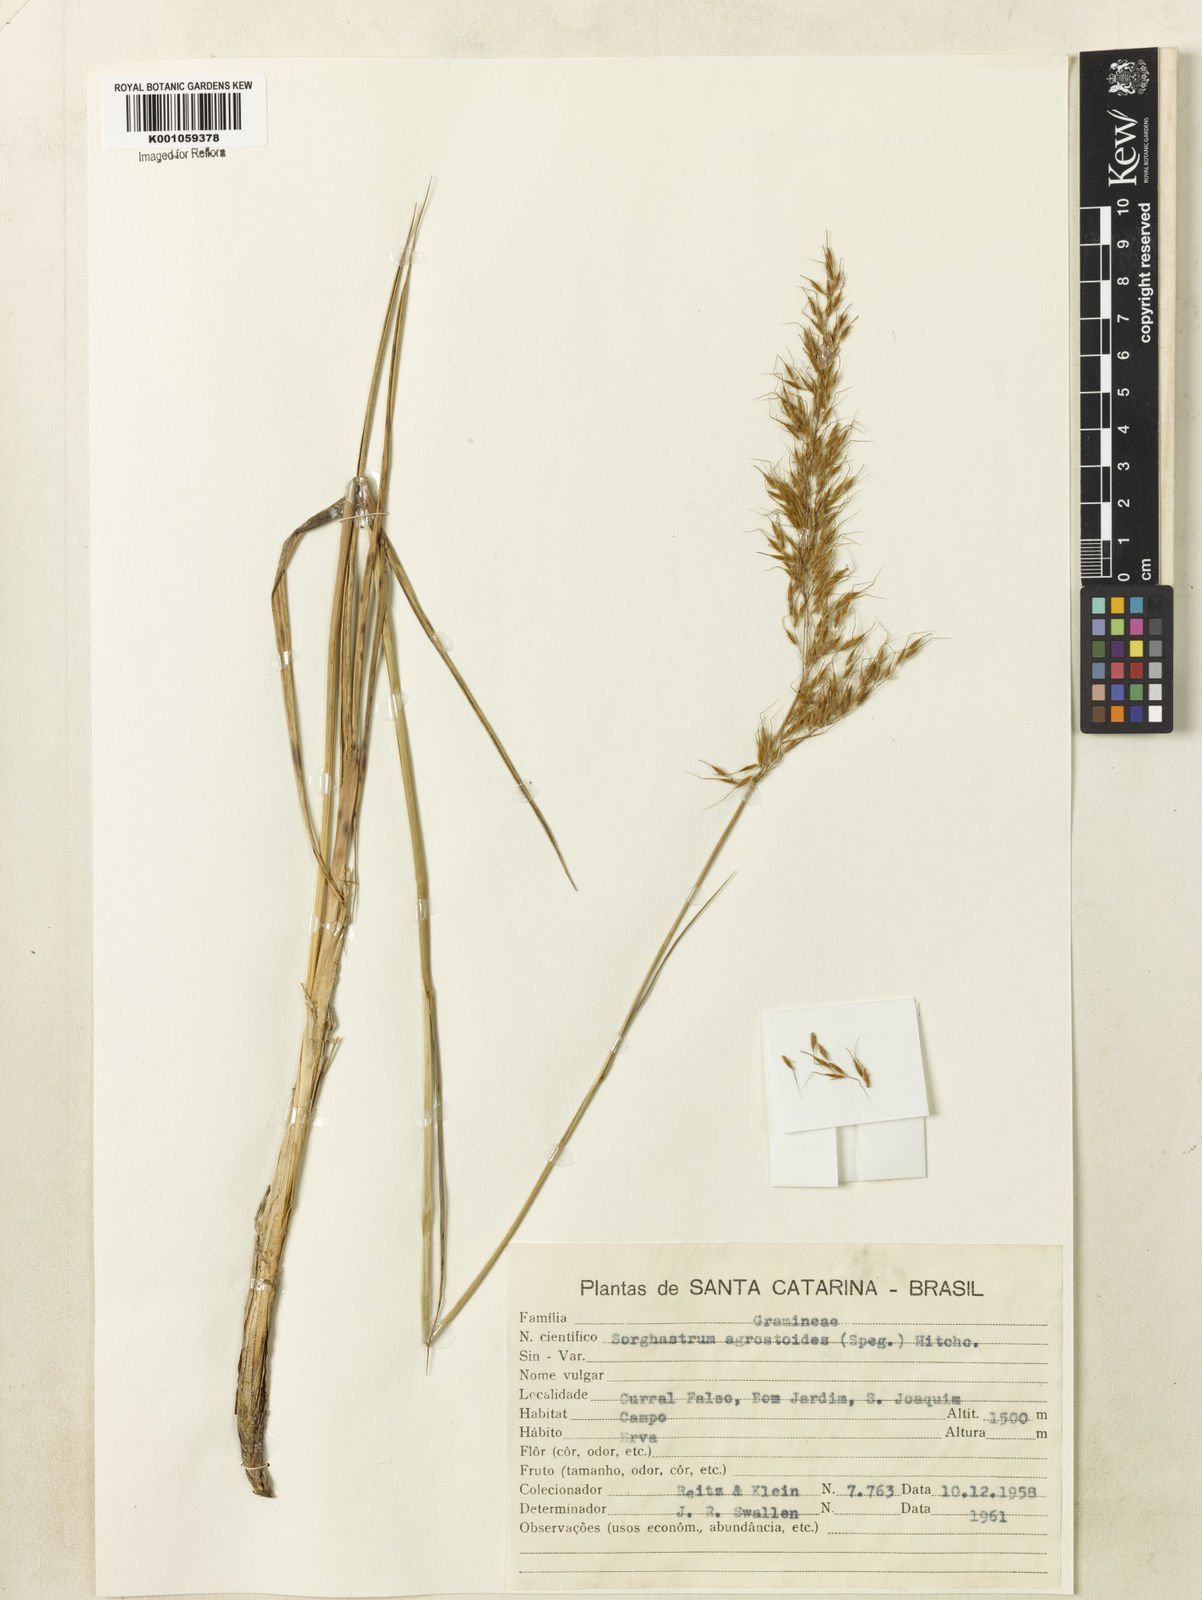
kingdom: Plantae
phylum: Tracheophyta
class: Liliopsida
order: Poales
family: Poaceae
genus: Sorghastrum
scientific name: Sorghastrum pellitum
